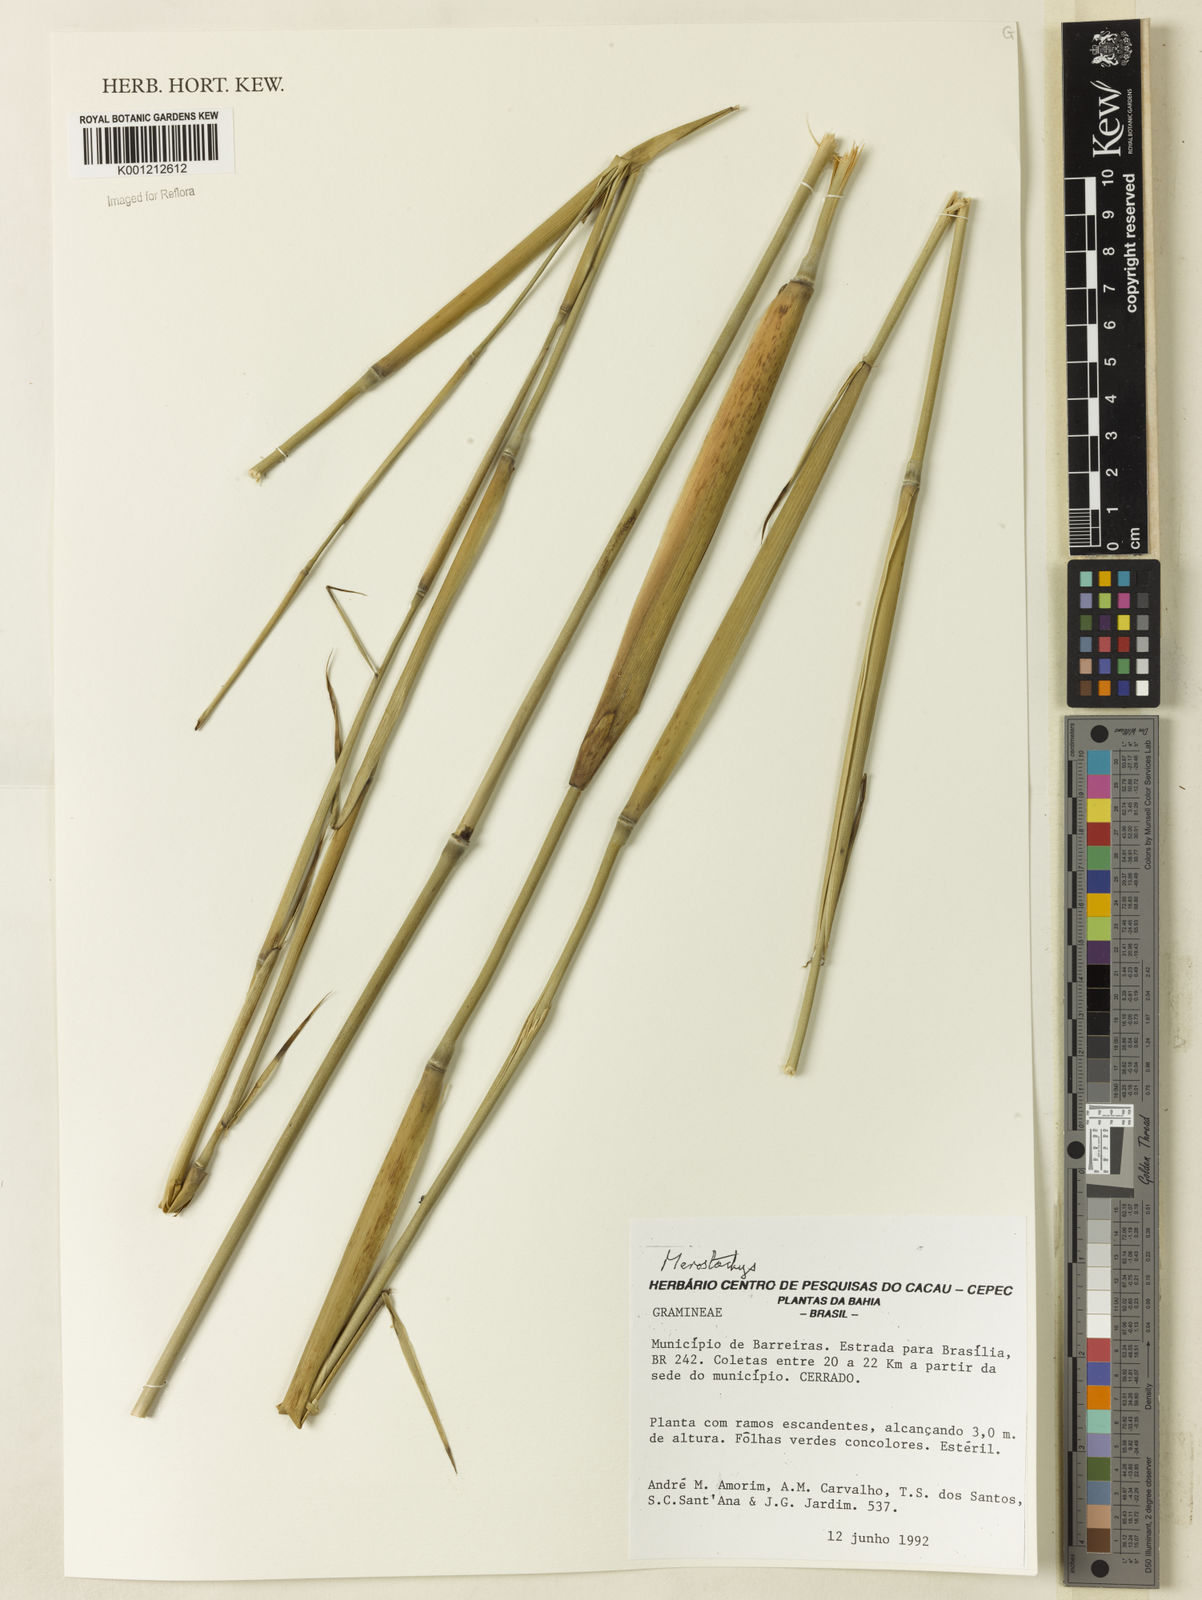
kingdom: Plantae
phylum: Tracheophyta
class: Liliopsida
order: Poales
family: Poaceae
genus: Merostachys
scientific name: Merostachys
